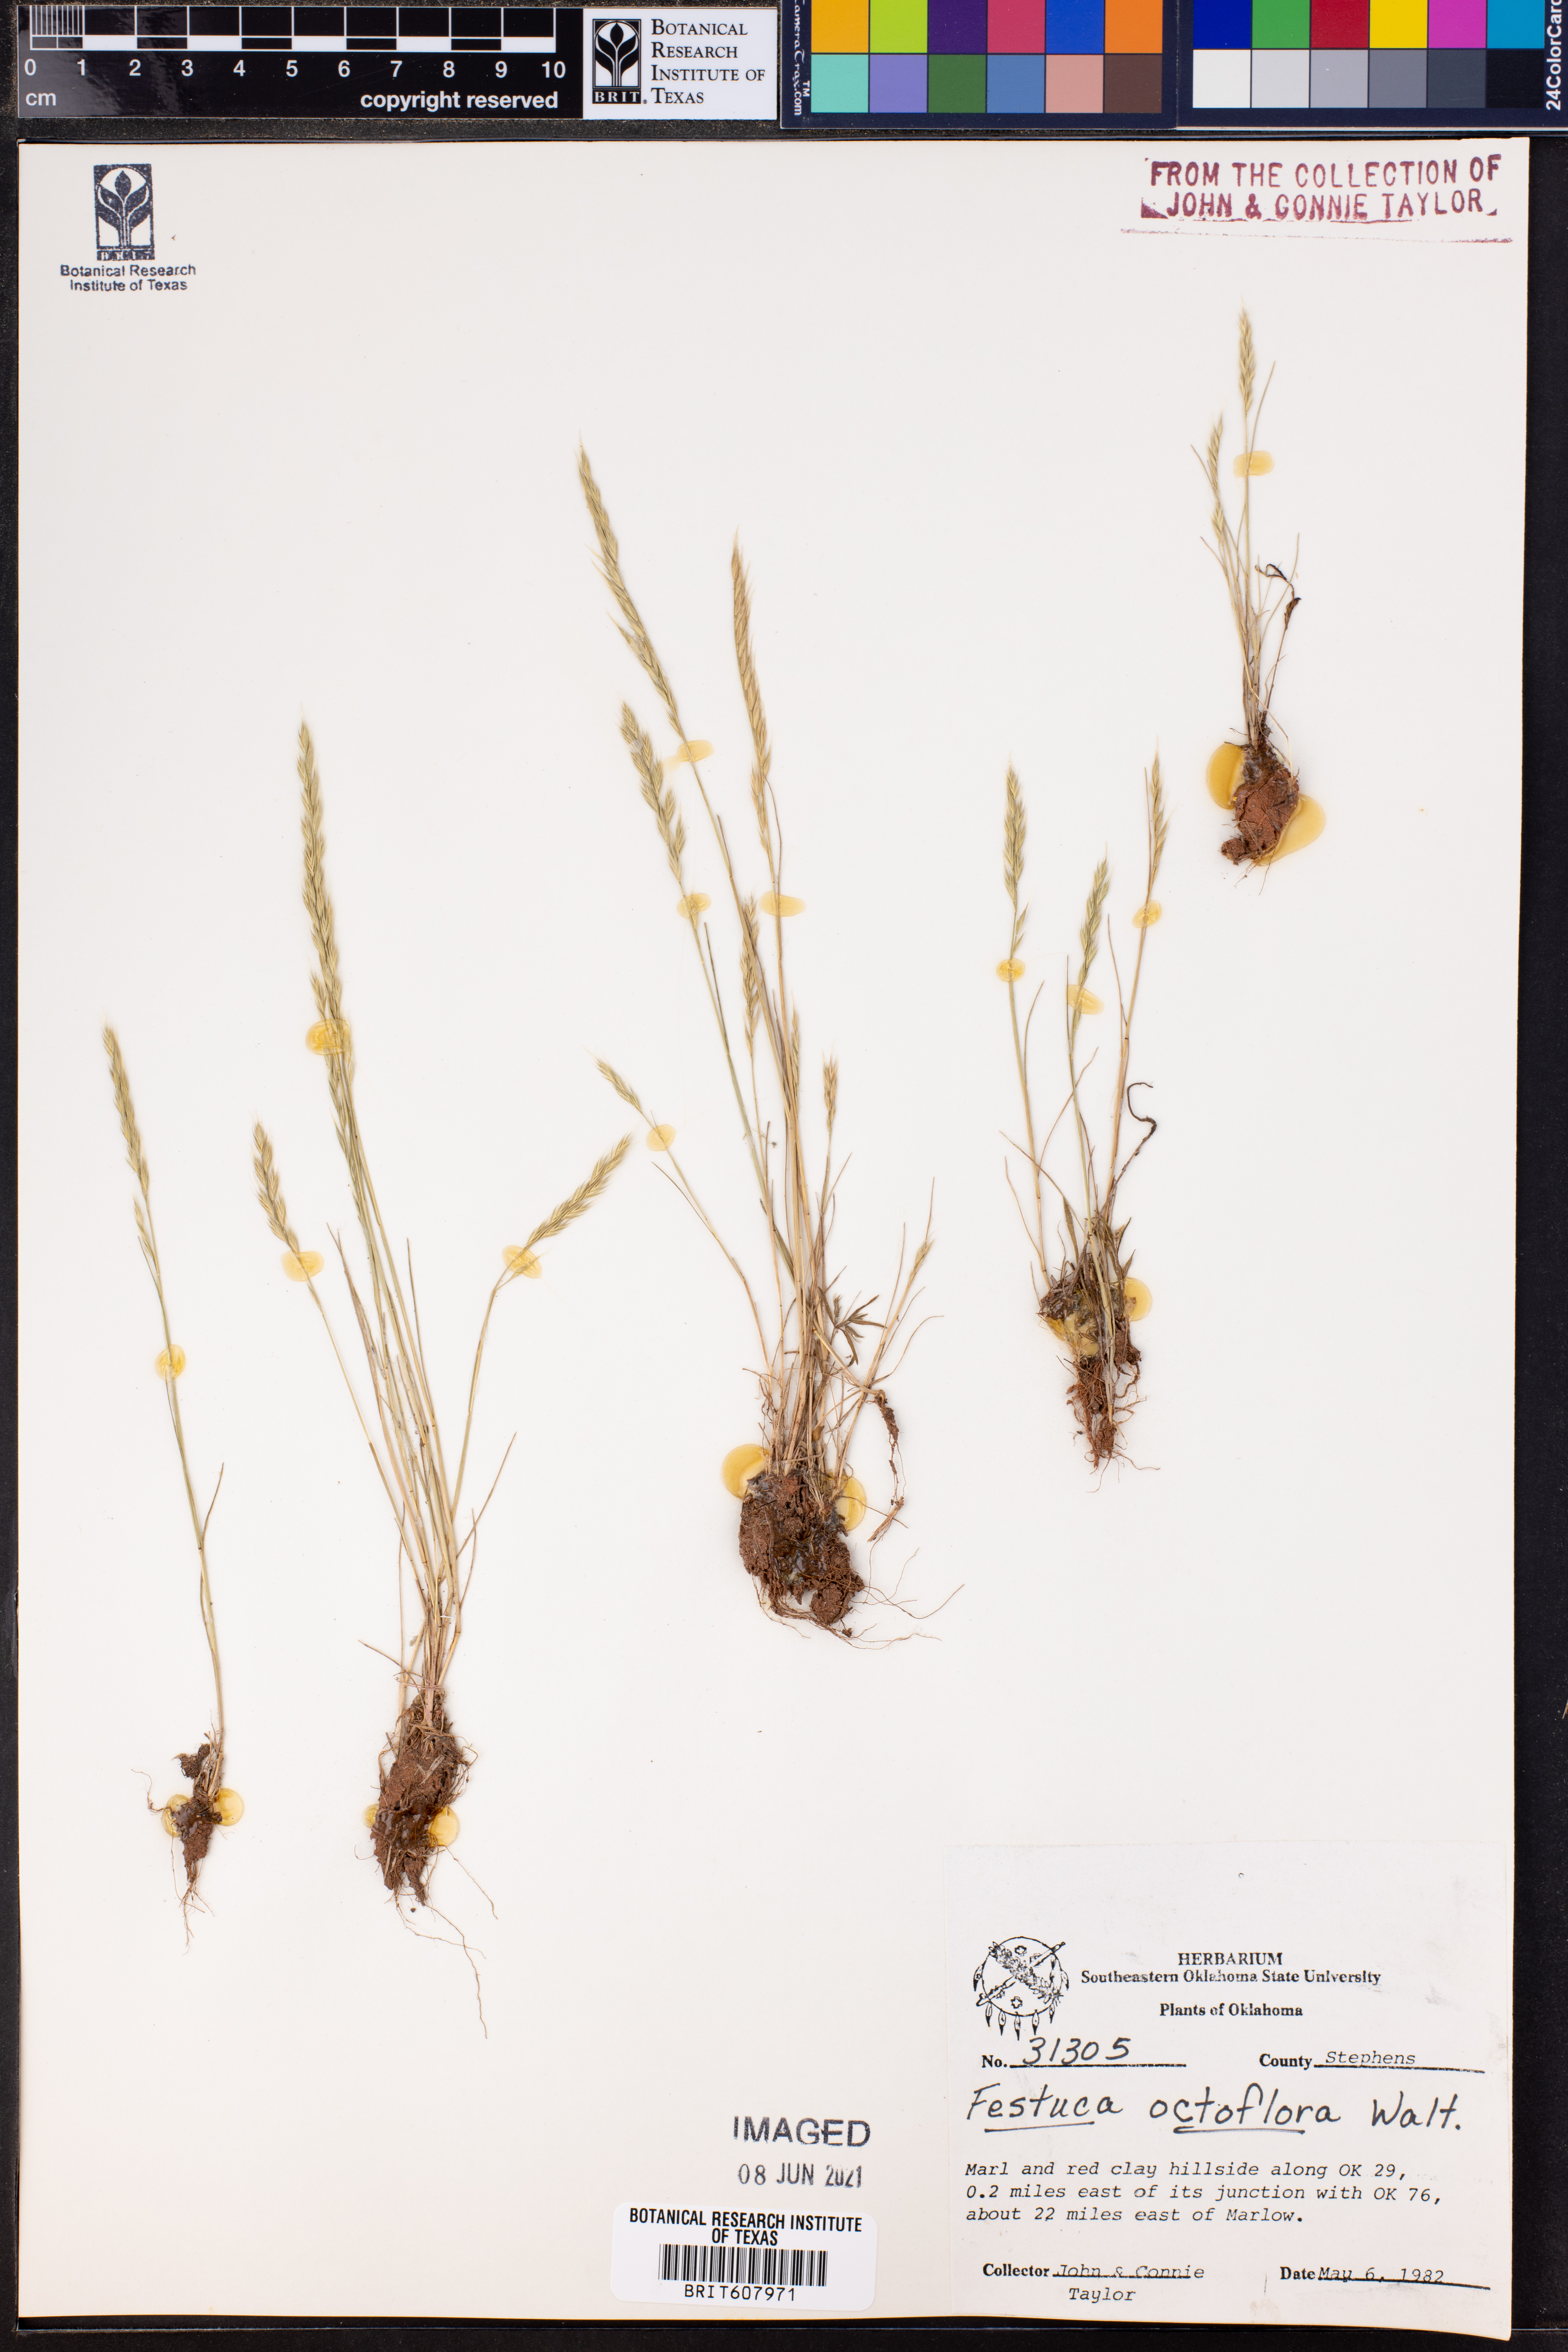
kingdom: Plantae
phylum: Tracheophyta
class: Liliopsida
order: Poales
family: Poaceae
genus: Festuca
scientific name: Festuca octoflora
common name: Sixweeks grass
